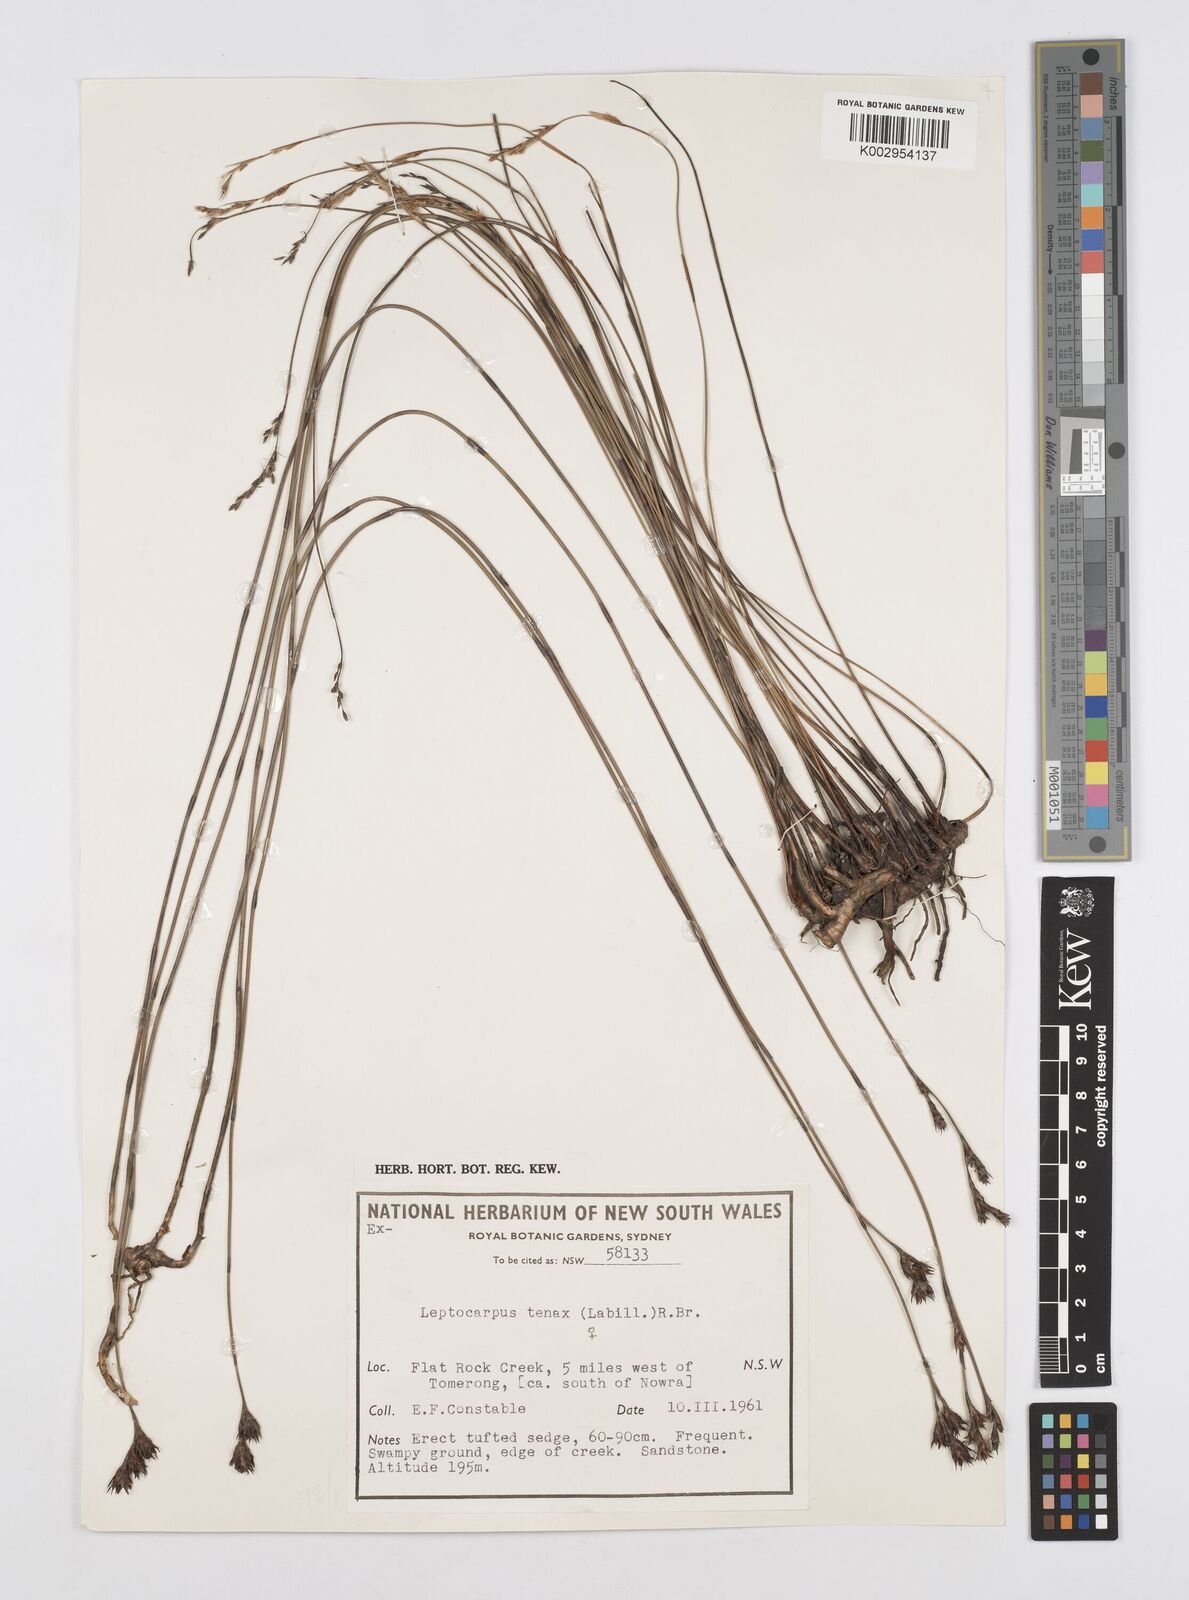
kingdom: Plantae
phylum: Tracheophyta
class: Liliopsida
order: Poales
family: Restionaceae
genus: Leptocarpus
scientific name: Leptocarpus tenax
